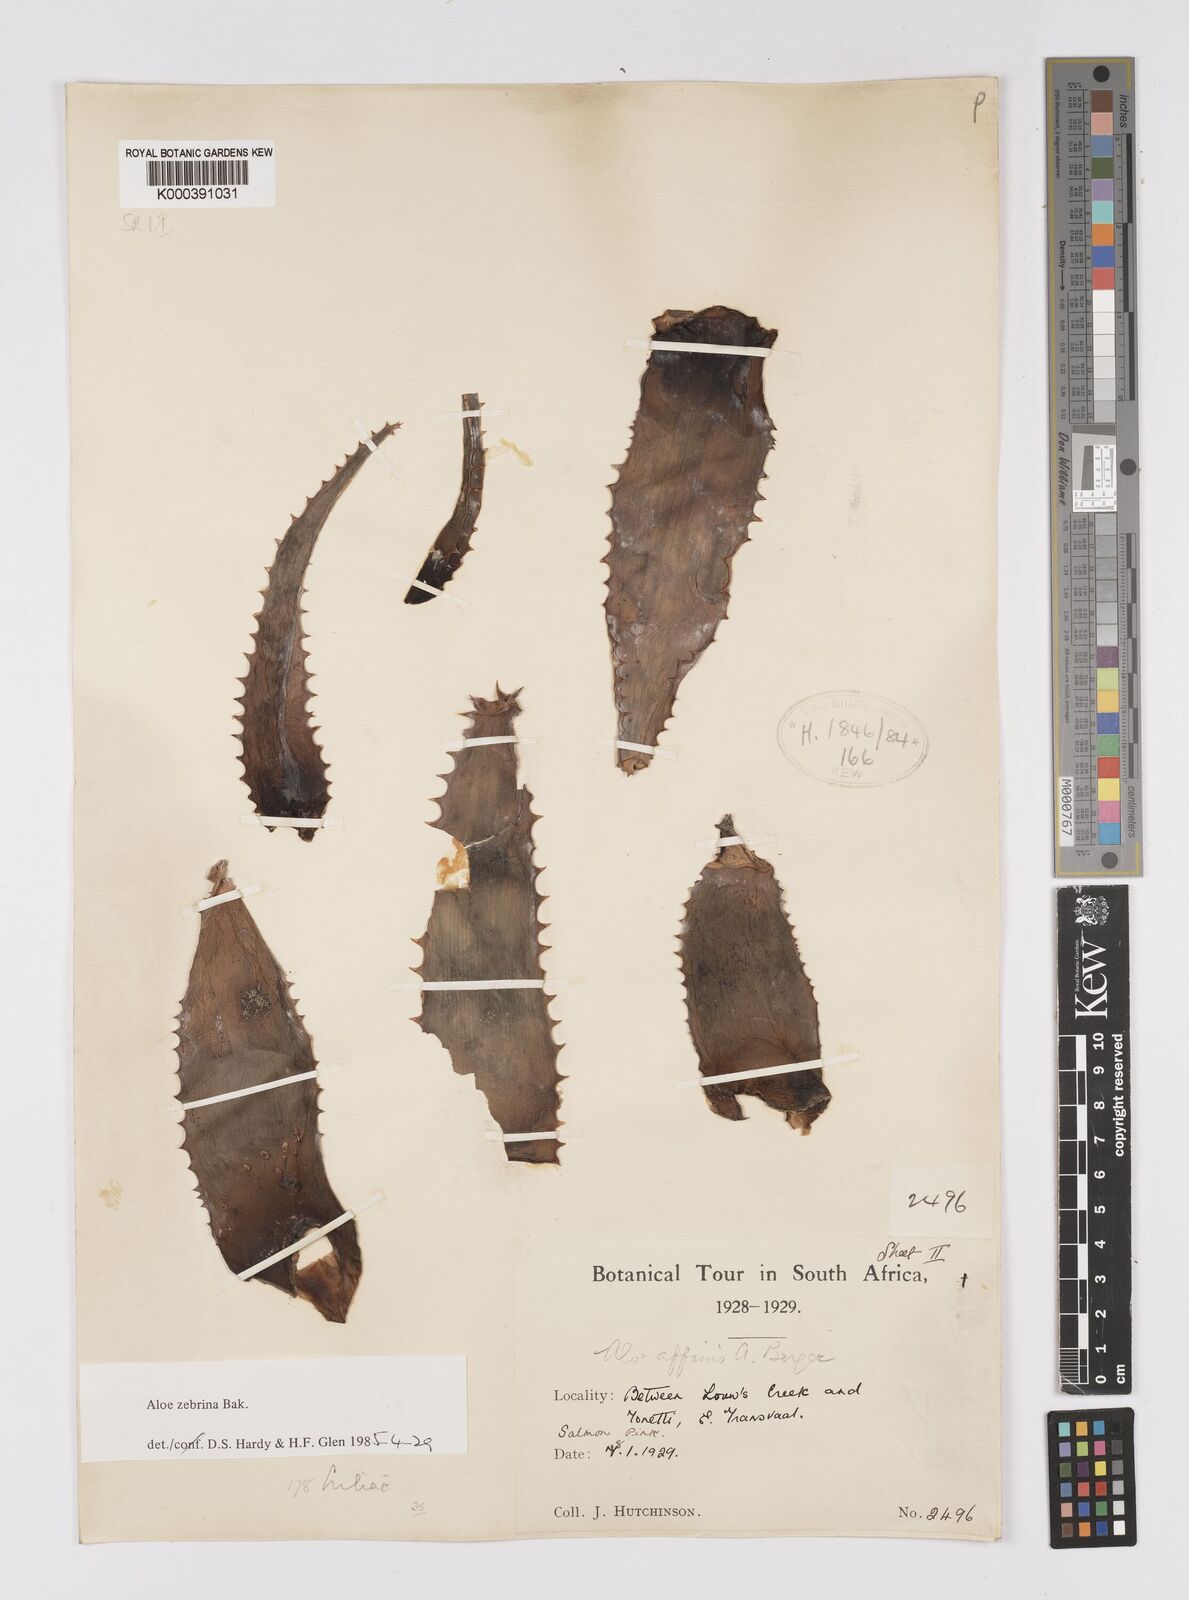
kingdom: Plantae
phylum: Tracheophyta
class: Liliopsida
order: Asparagales
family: Asphodelaceae
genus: Aloe
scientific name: Aloe zebrina
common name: Zebra-leaf aloe
